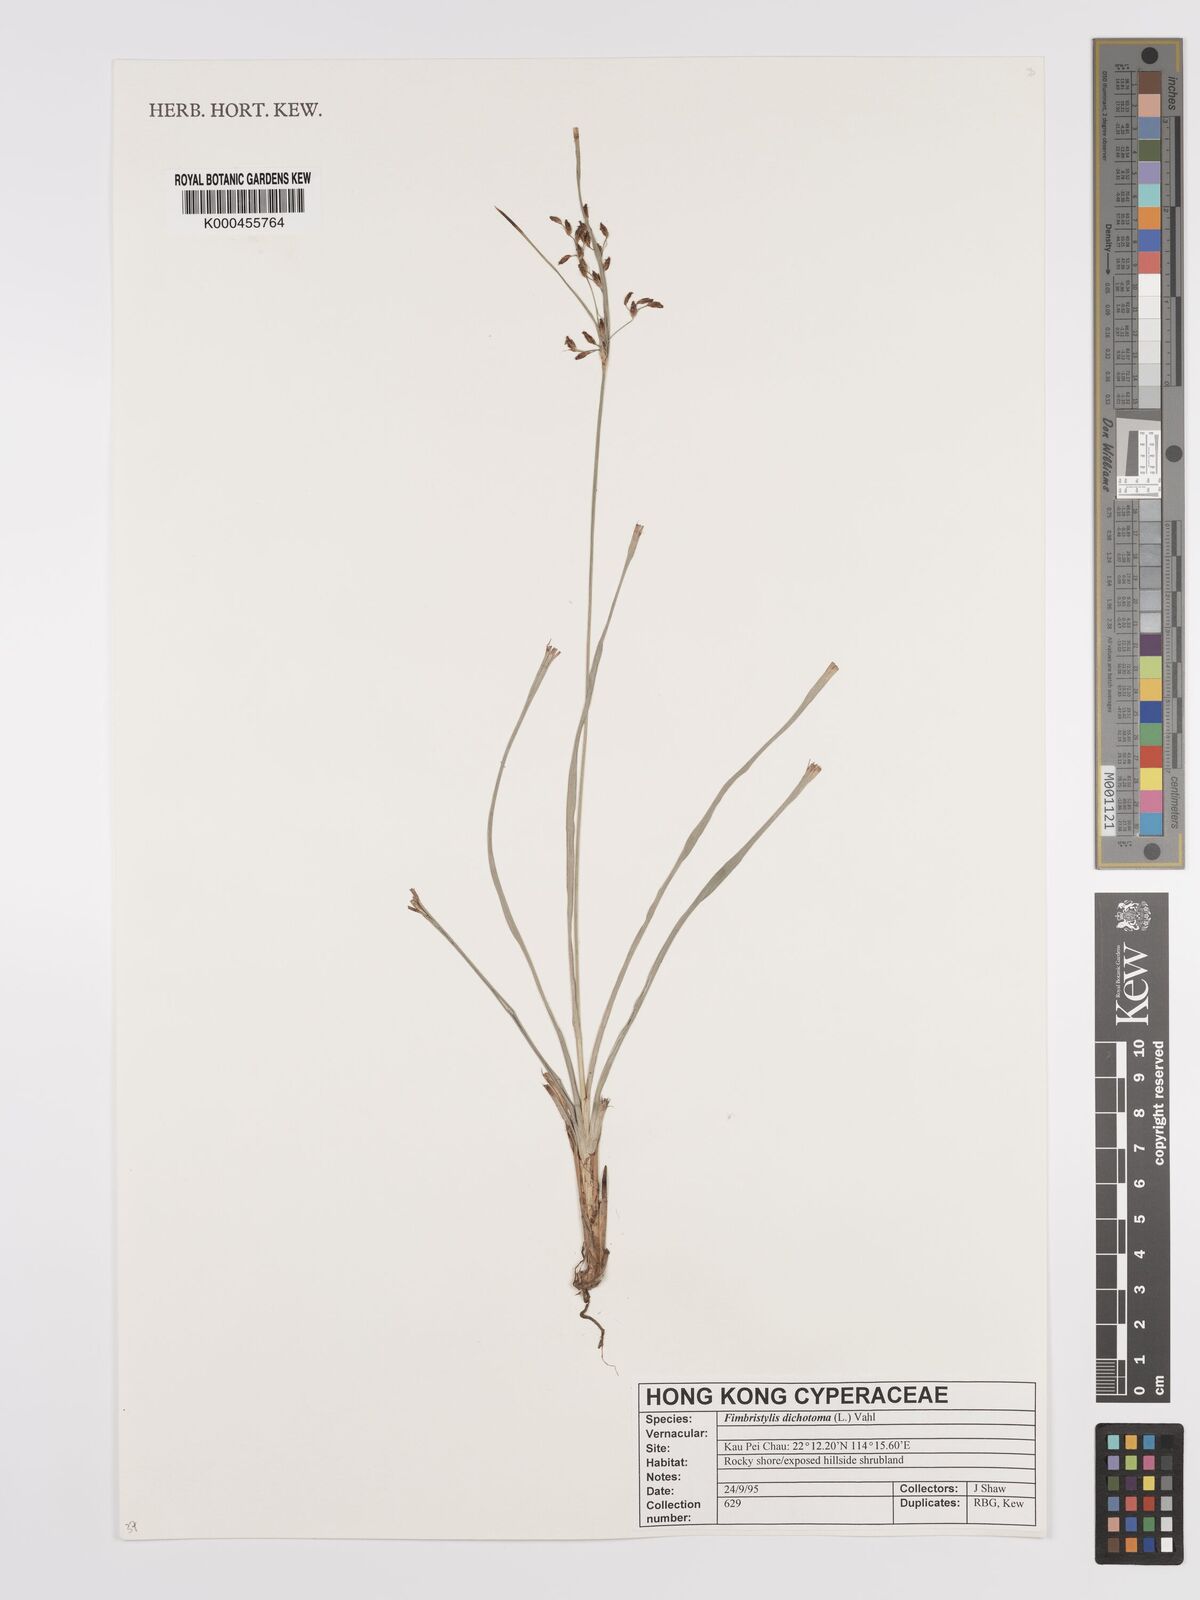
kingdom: Plantae
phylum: Tracheophyta
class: Liliopsida
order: Poales
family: Cyperaceae
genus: Fimbristylis
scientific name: Fimbristylis dichotoma
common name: Forked fimbry
